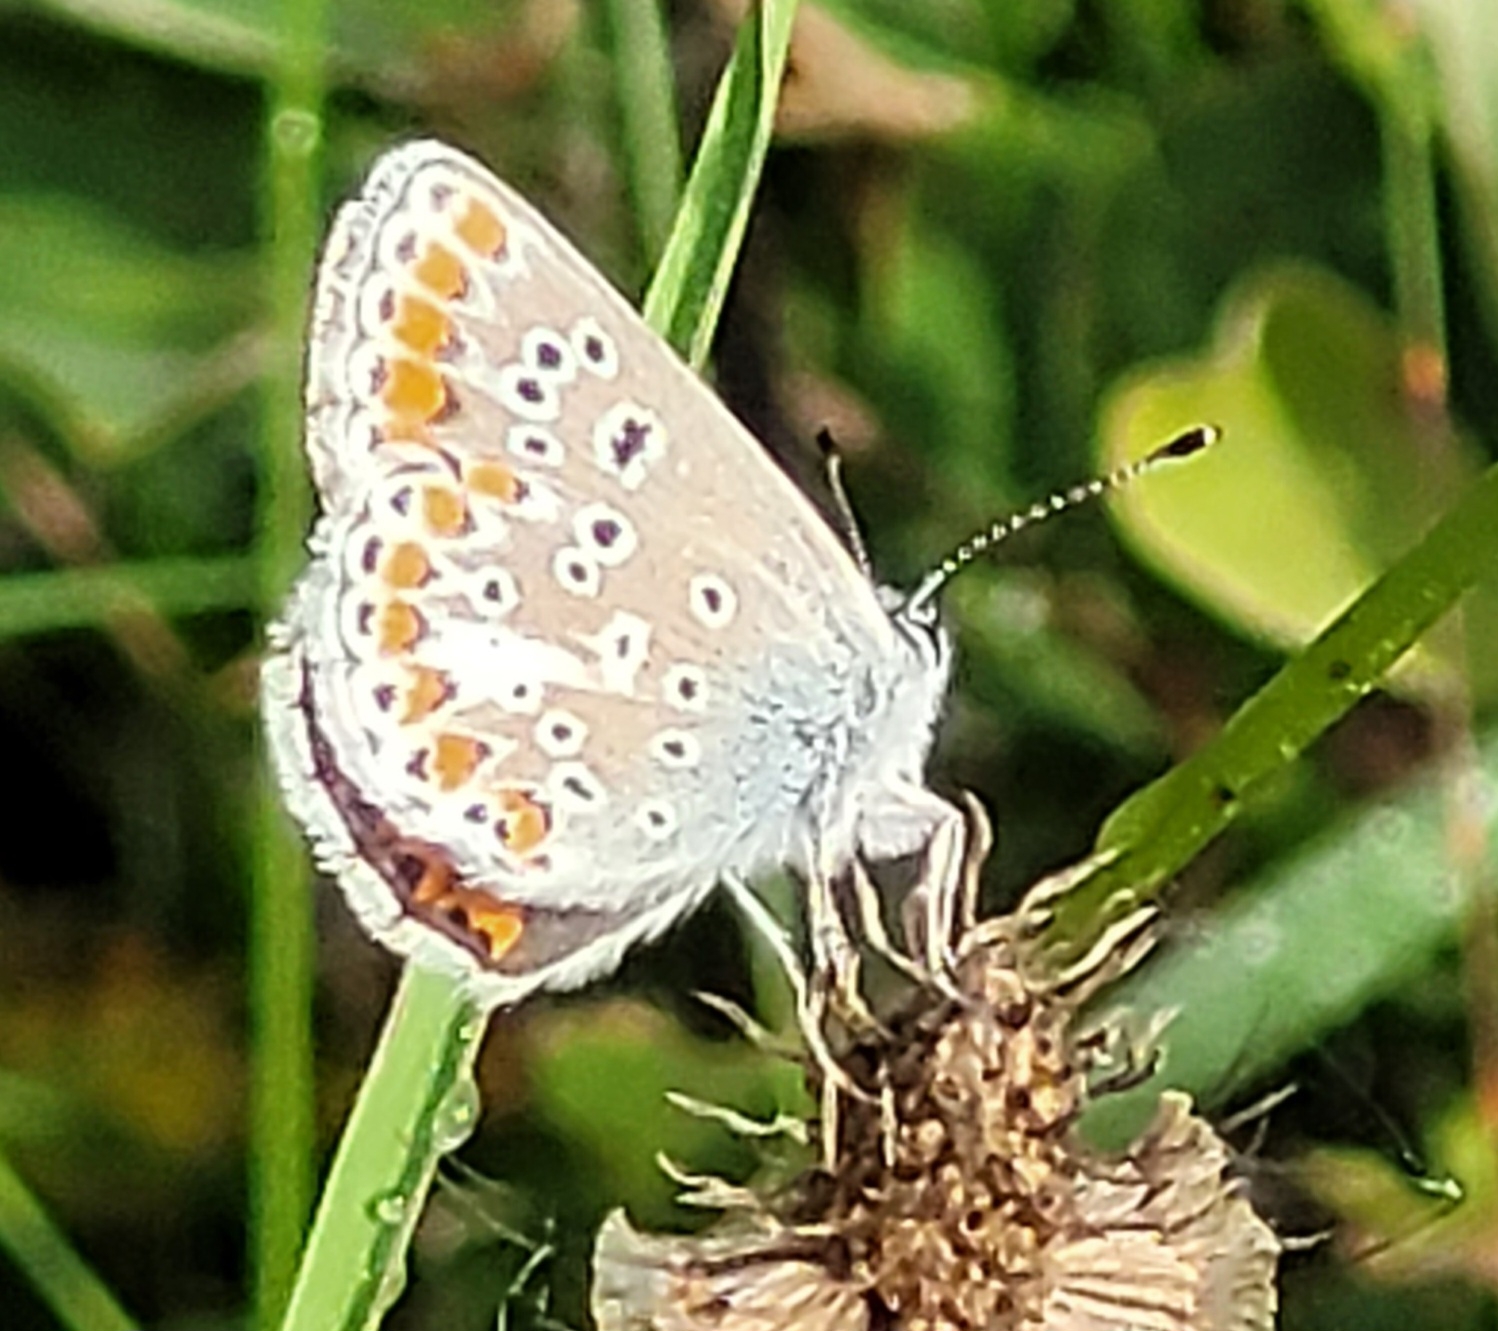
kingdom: Animalia
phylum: Arthropoda
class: Insecta
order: Lepidoptera
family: Lycaenidae
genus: Aricia
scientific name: Aricia agestis
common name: Rødplettet blåfugl
